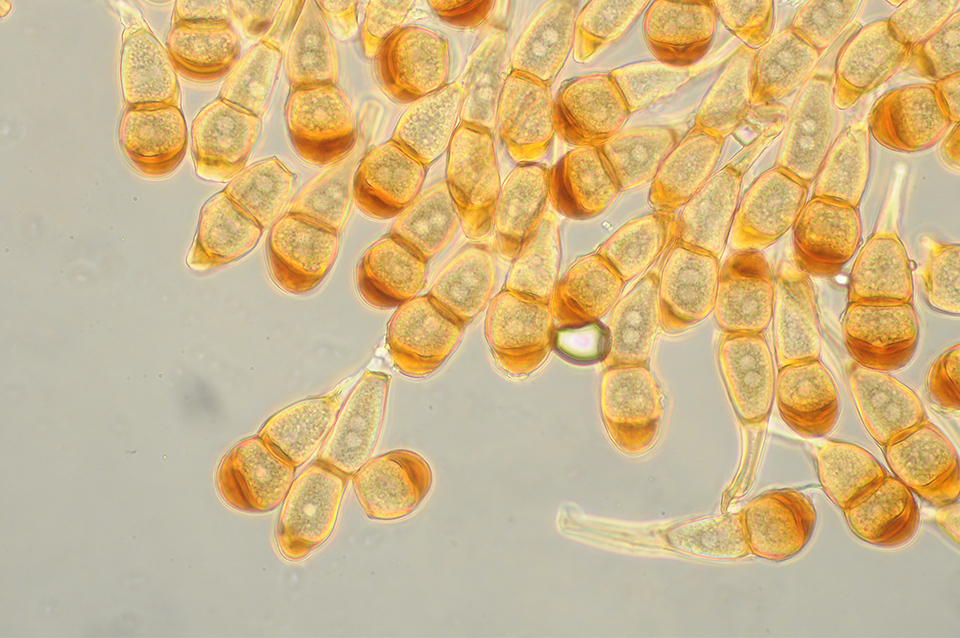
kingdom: Fungi
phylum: Basidiomycota
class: Pucciniomycetes
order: Pucciniales
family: Pucciniaceae
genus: Puccinia
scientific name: Puccinia caricina
